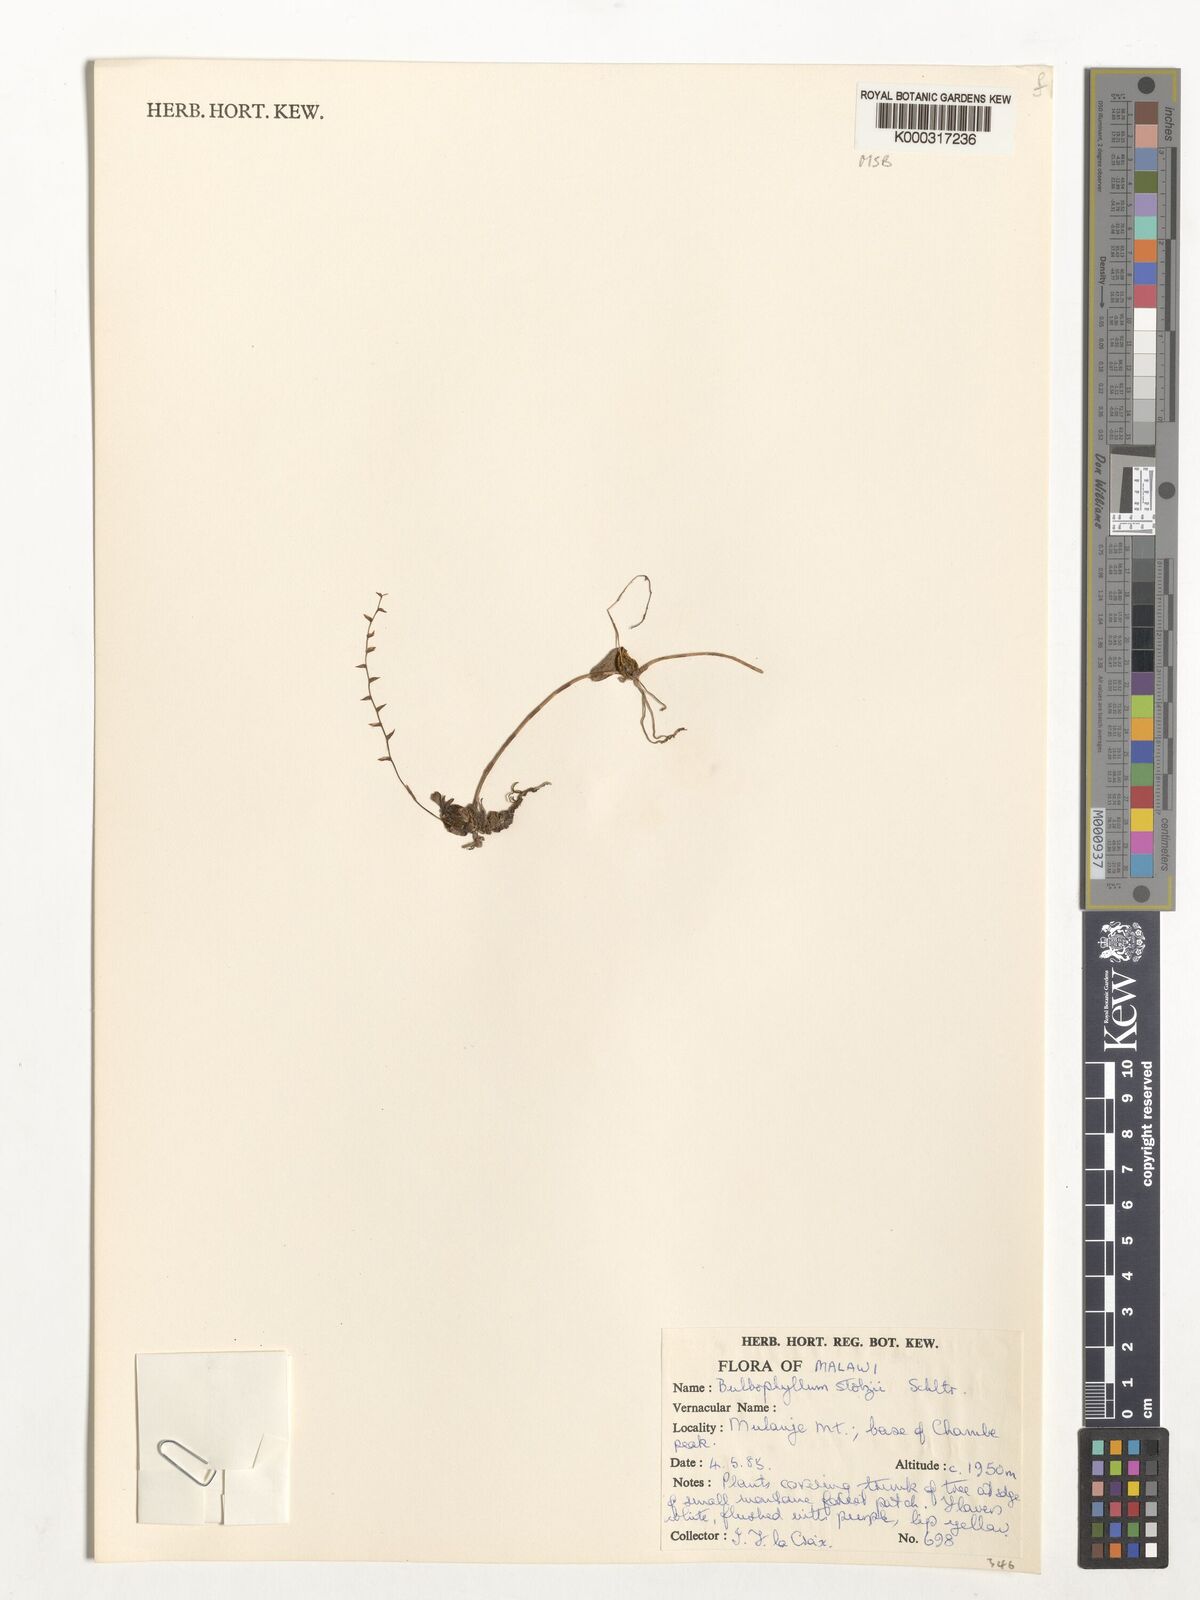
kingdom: Plantae
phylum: Tracheophyta
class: Liliopsida
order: Asparagales
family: Orchidaceae
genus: Bulbophyllum
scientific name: Bulbophyllum stolzii
